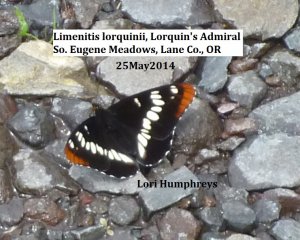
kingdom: Animalia
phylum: Arthropoda
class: Insecta
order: Lepidoptera
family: Nymphalidae
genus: Limenitis
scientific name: Limenitis lorquini
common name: Lorquin's Admiral
